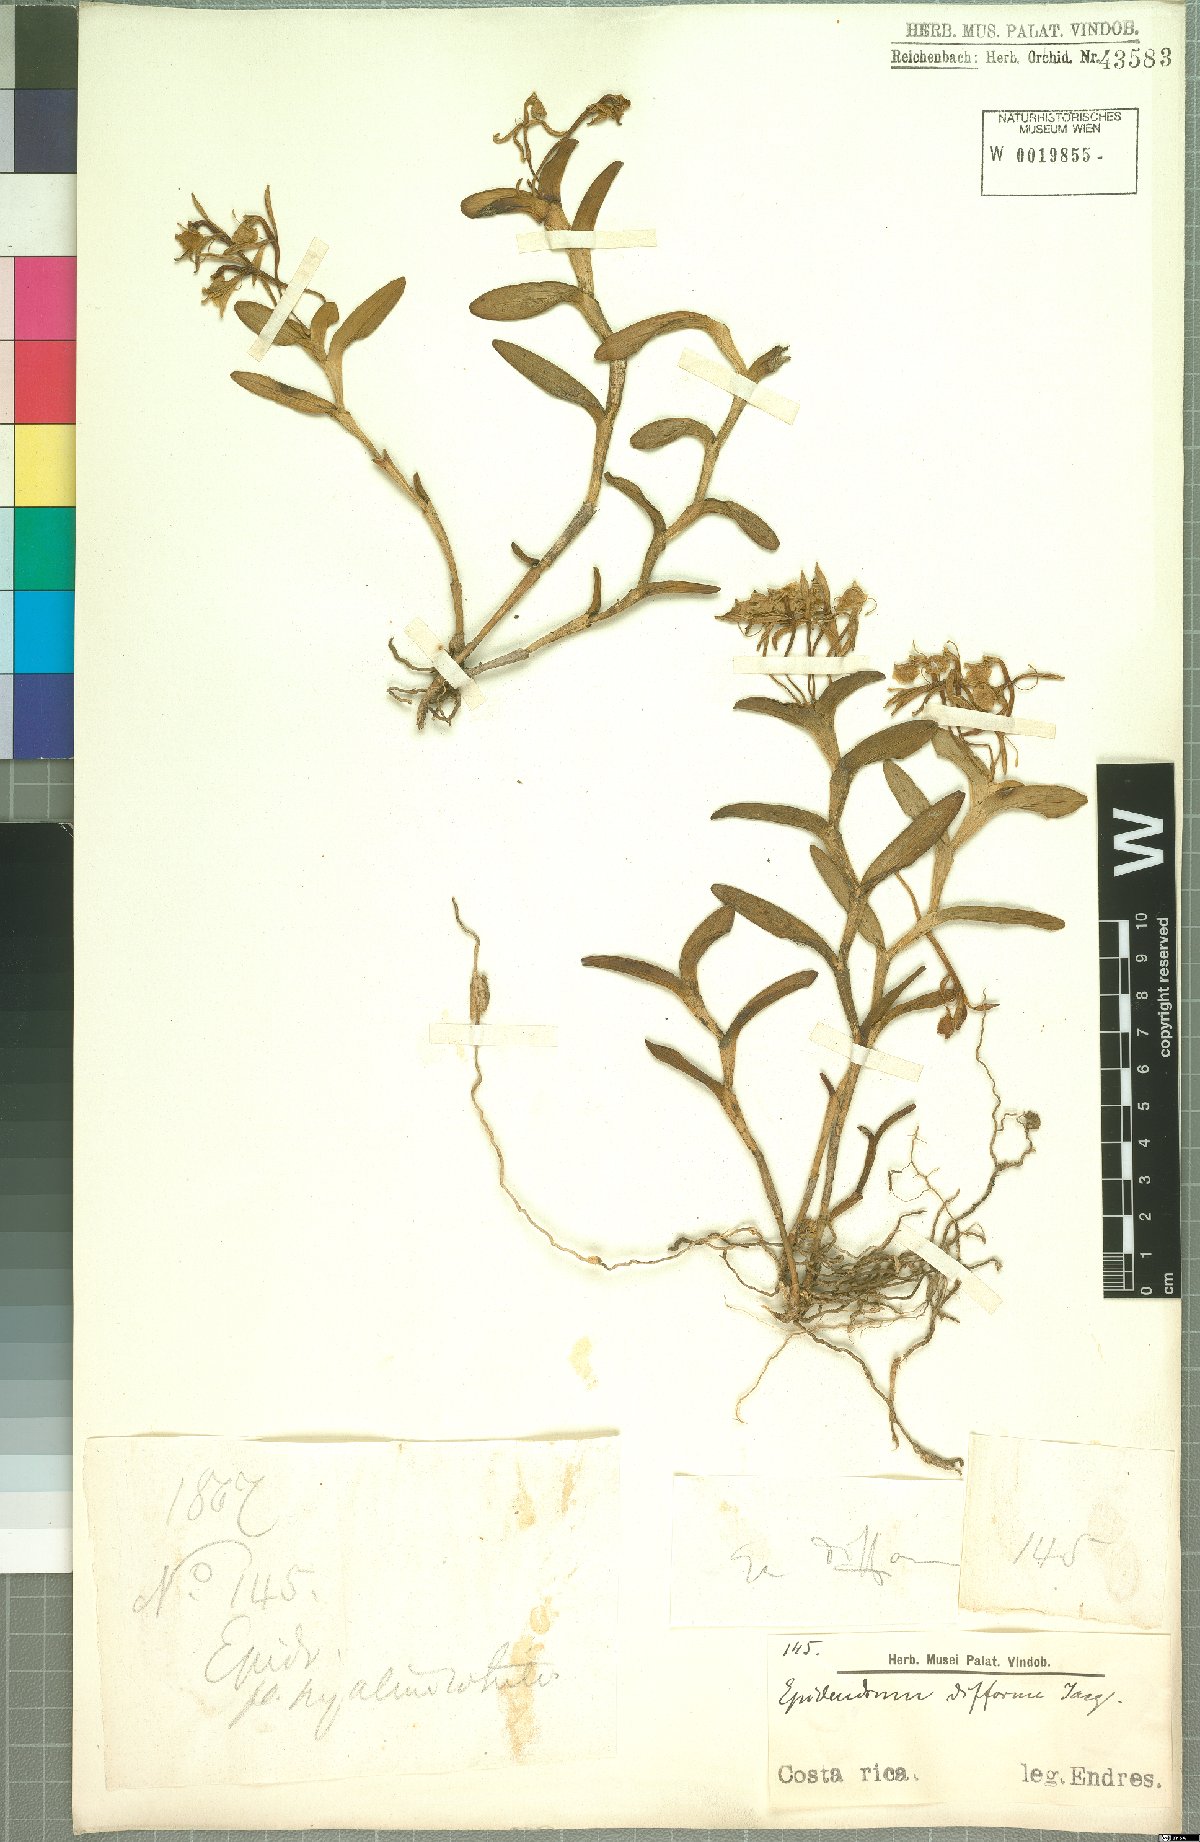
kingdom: Plantae
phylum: Tracheophyta
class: Liliopsida
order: Asparagales
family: Orchidaceae
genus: Epidendrum
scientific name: Epidendrum difforme
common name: Umbrella epidendrum
